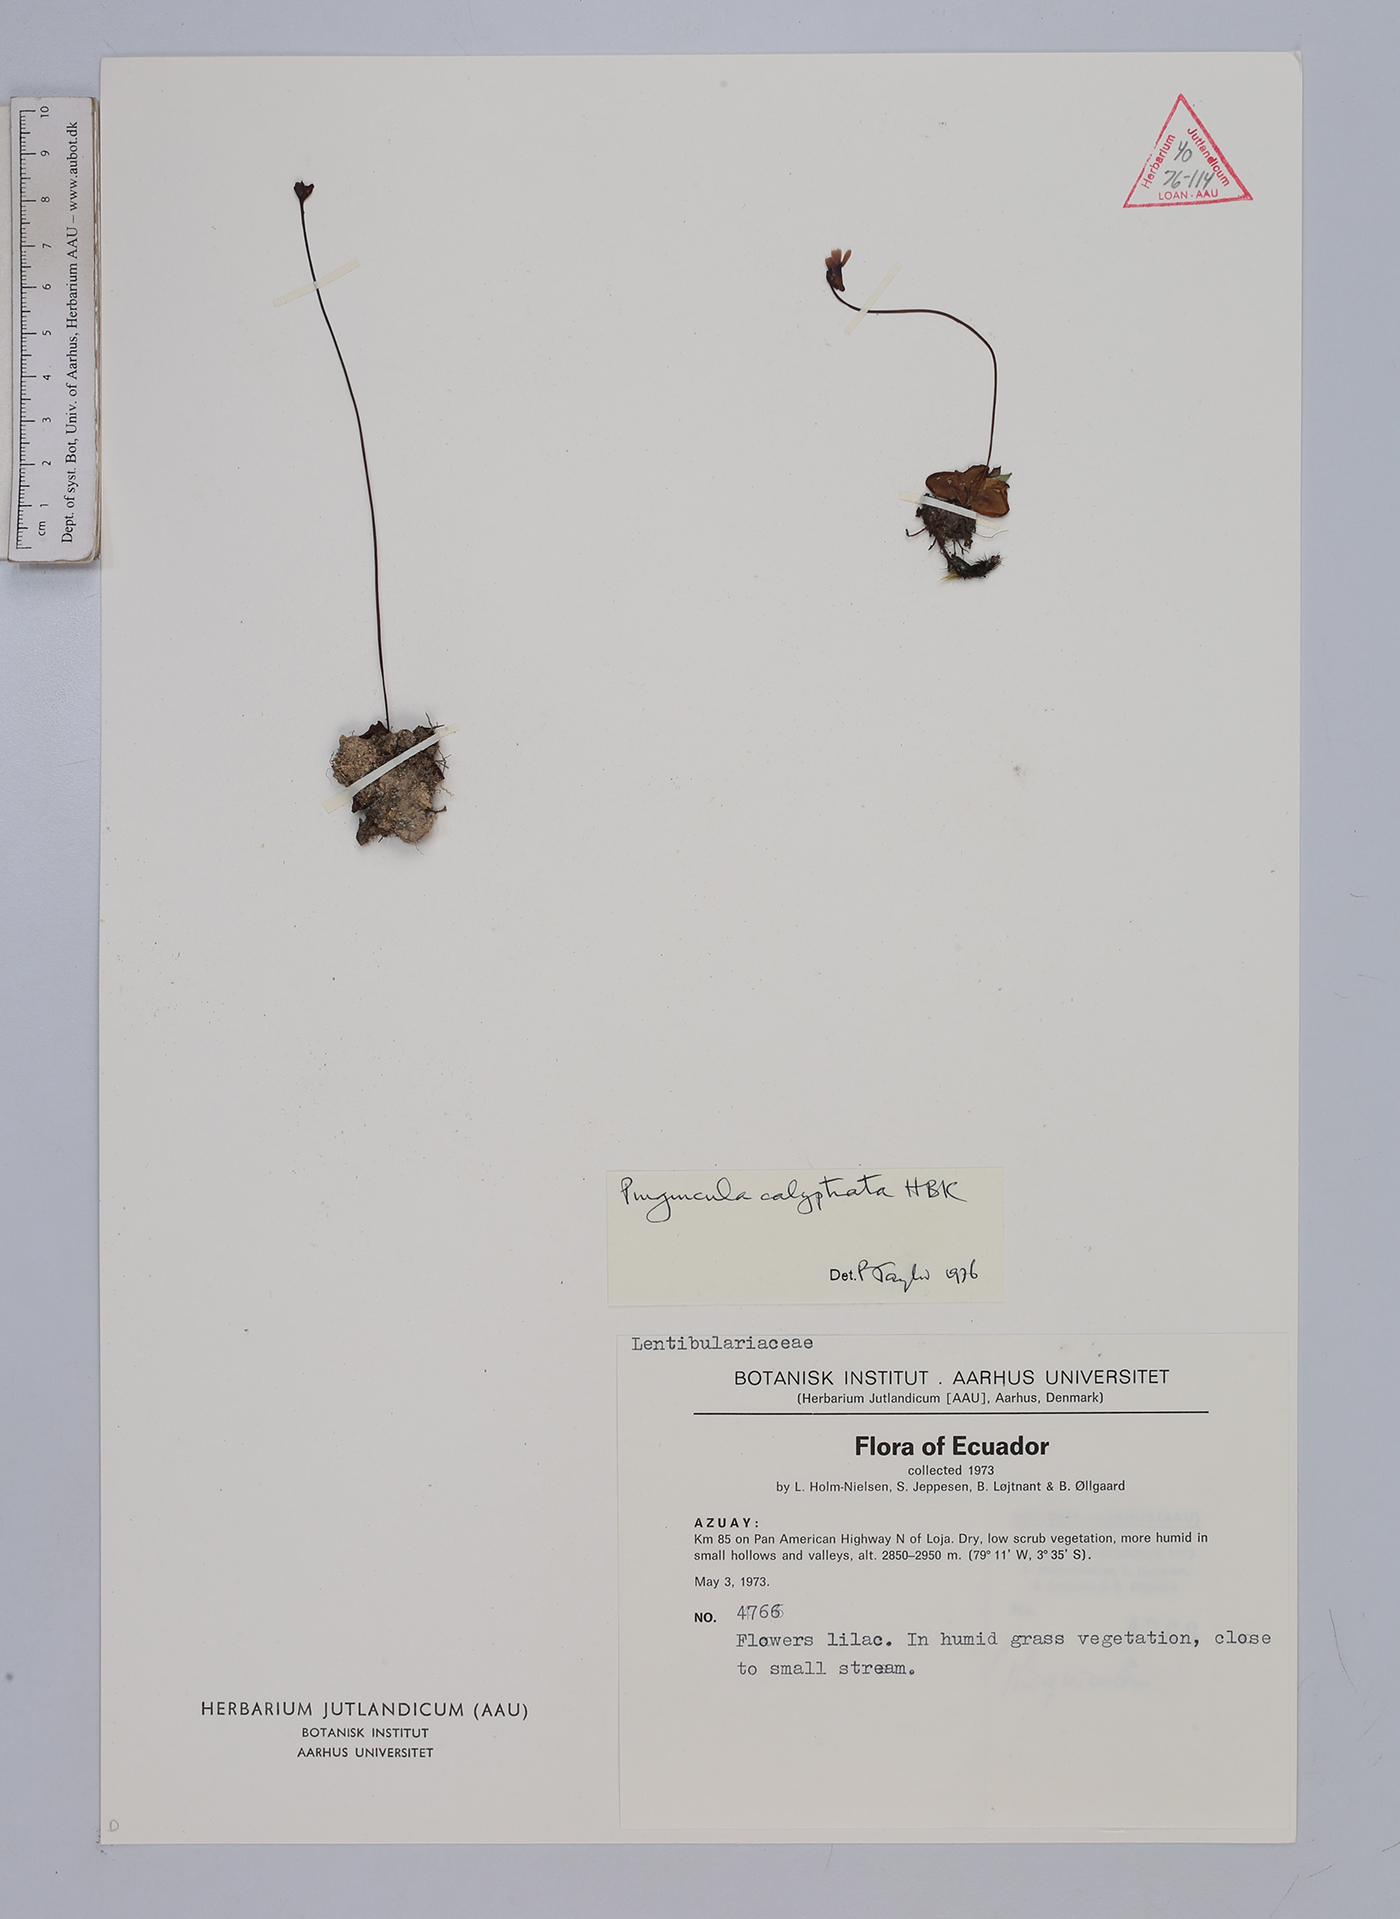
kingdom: Plantae
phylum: Tracheophyta
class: Magnoliopsida
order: Lamiales
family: Lentibulariaceae
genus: Pinguicula
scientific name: Pinguicula calyptrata
